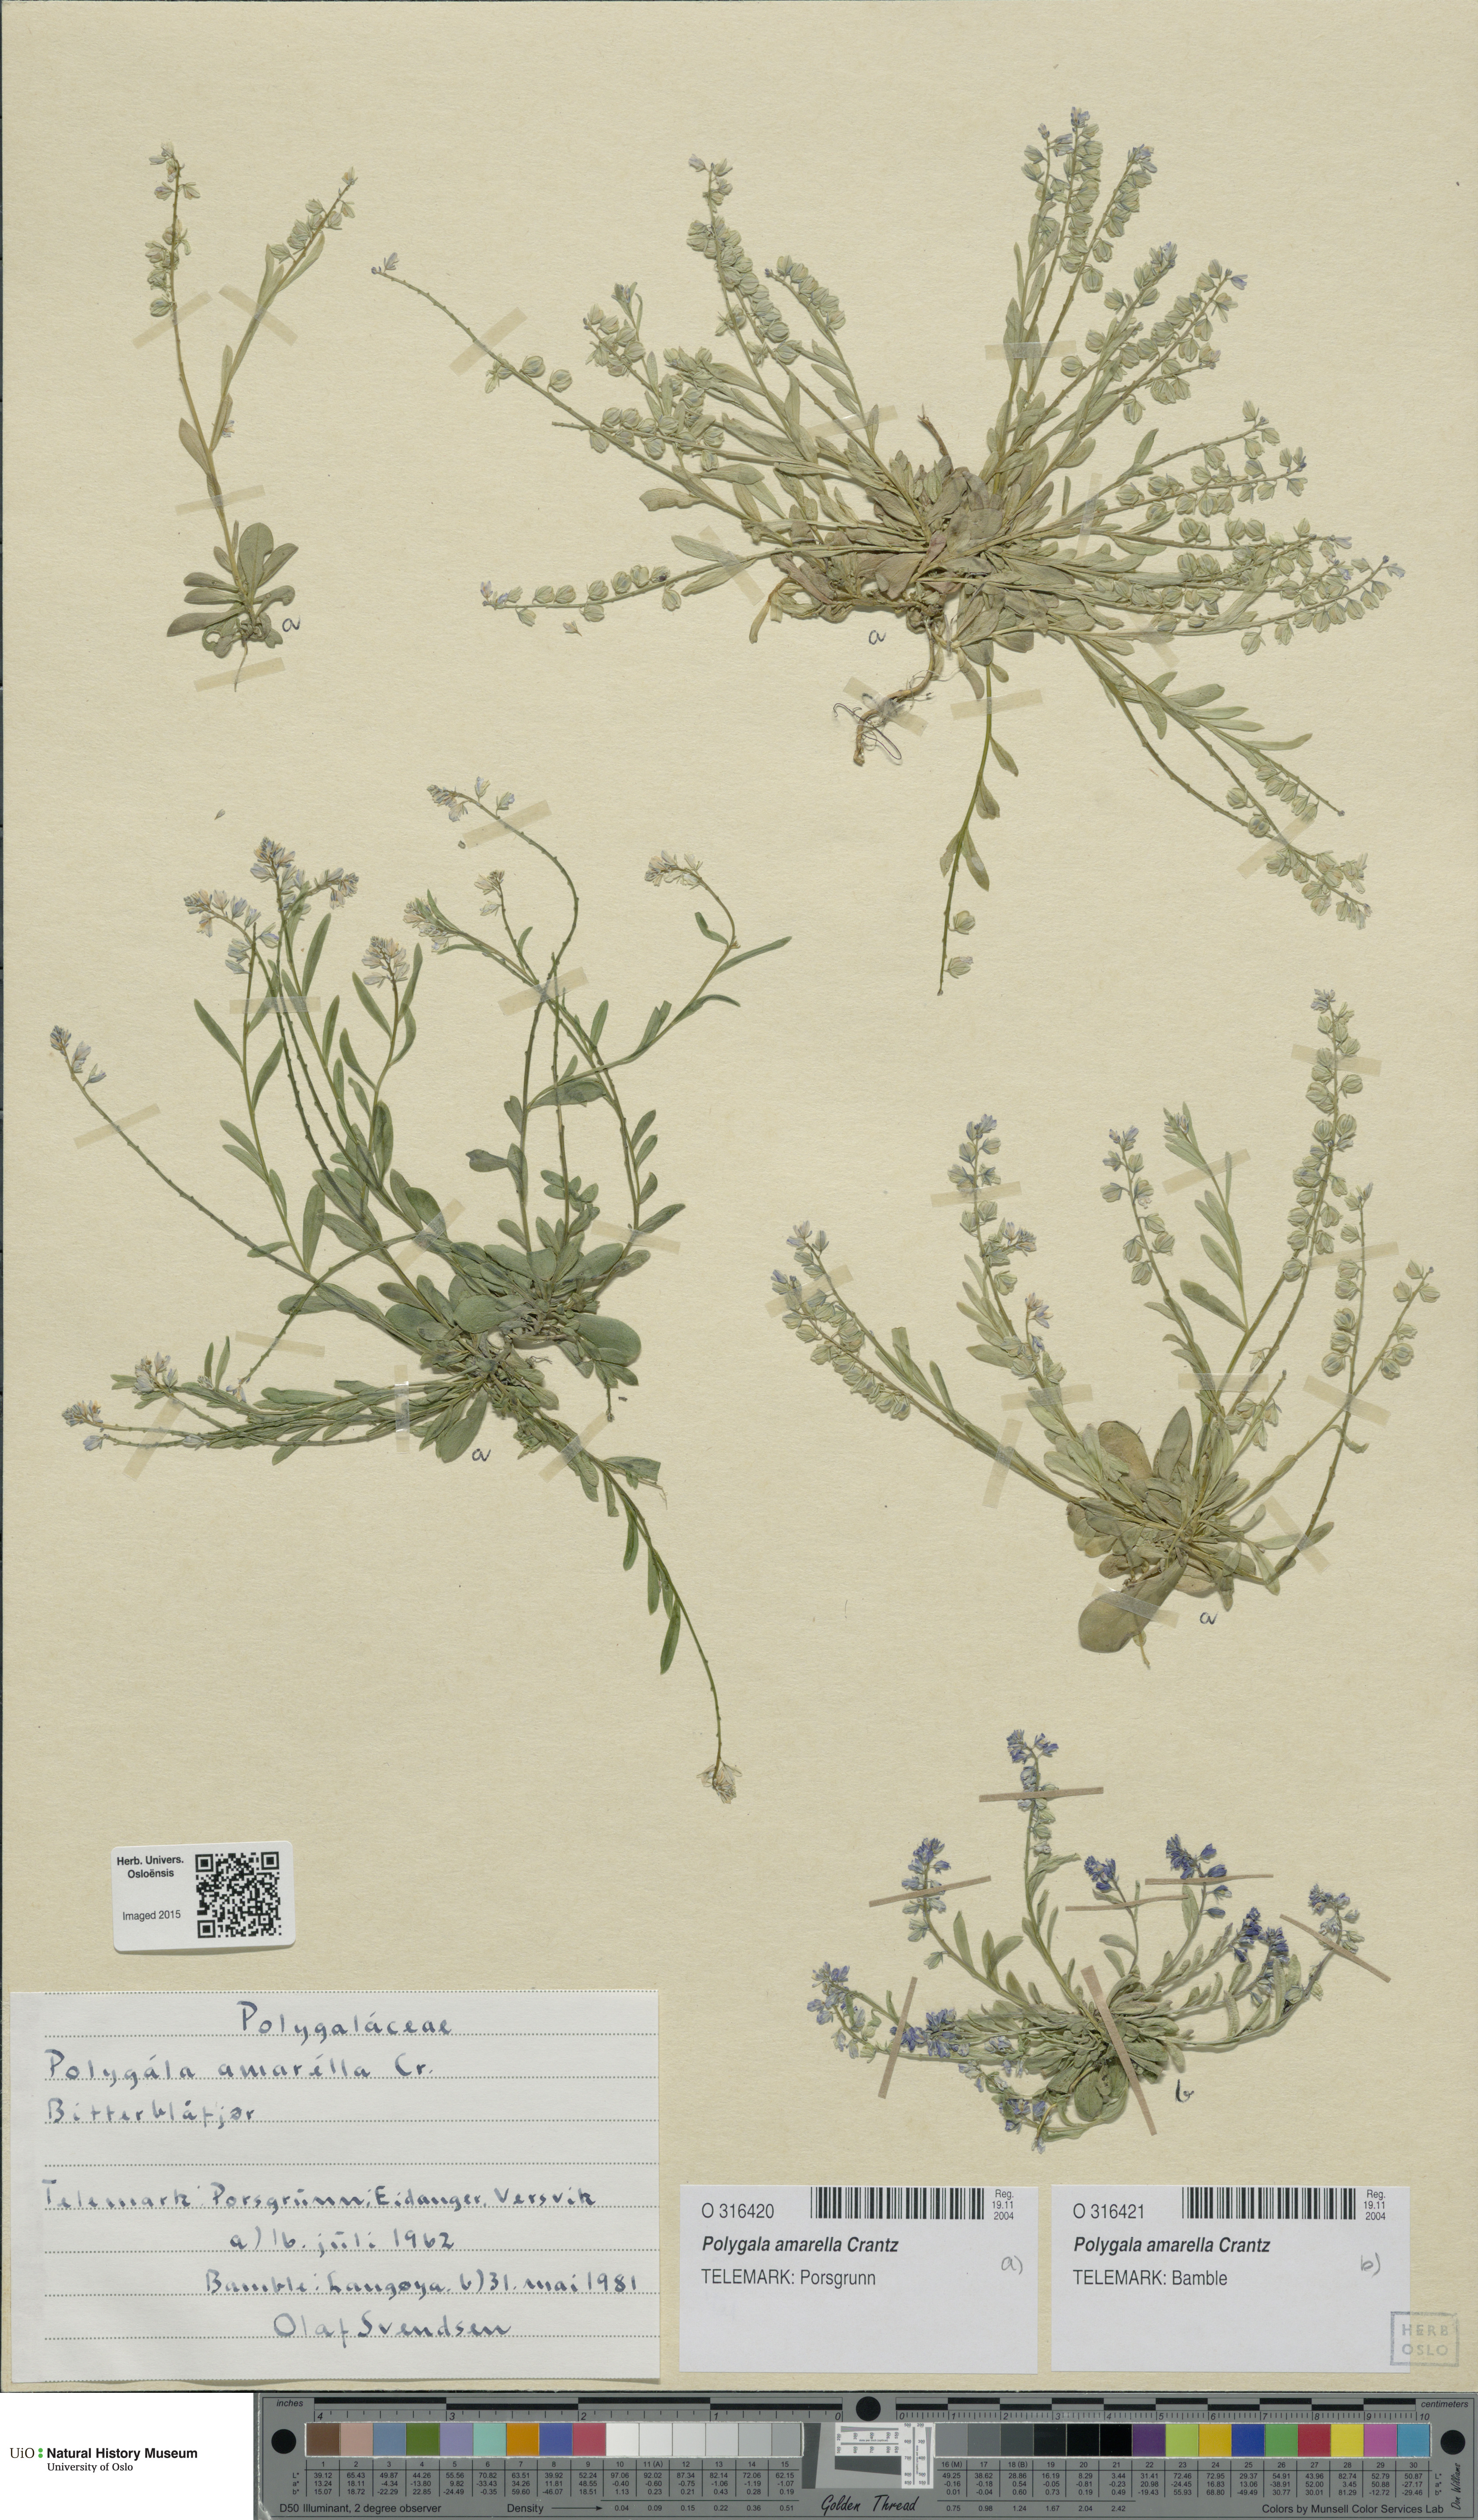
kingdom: Plantae
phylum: Tracheophyta
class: Magnoliopsida
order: Fabales
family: Polygalaceae
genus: Polygala
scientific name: Polygala amarella
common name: Dwarf milkwort
